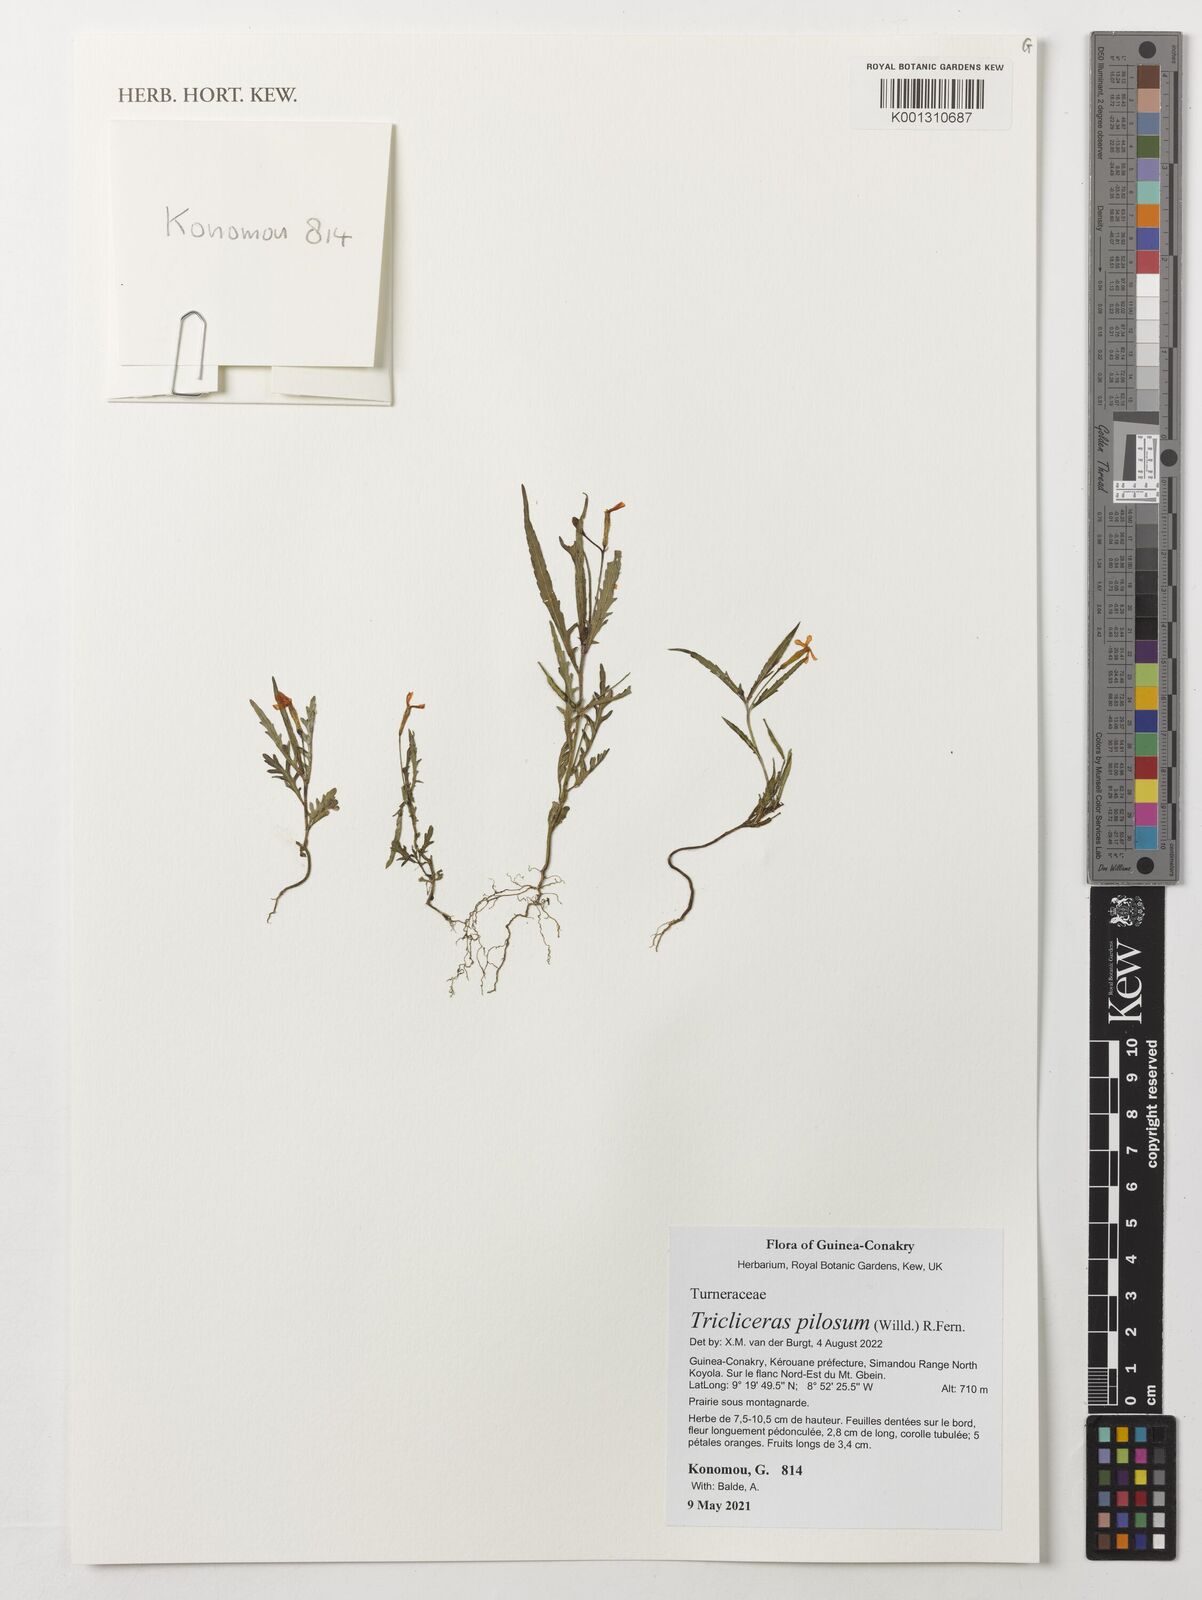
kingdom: Plantae
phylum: Tracheophyta
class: Magnoliopsida
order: Malpighiales
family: Turneraceae
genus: Tricliceras
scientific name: Tricliceras pilosum
